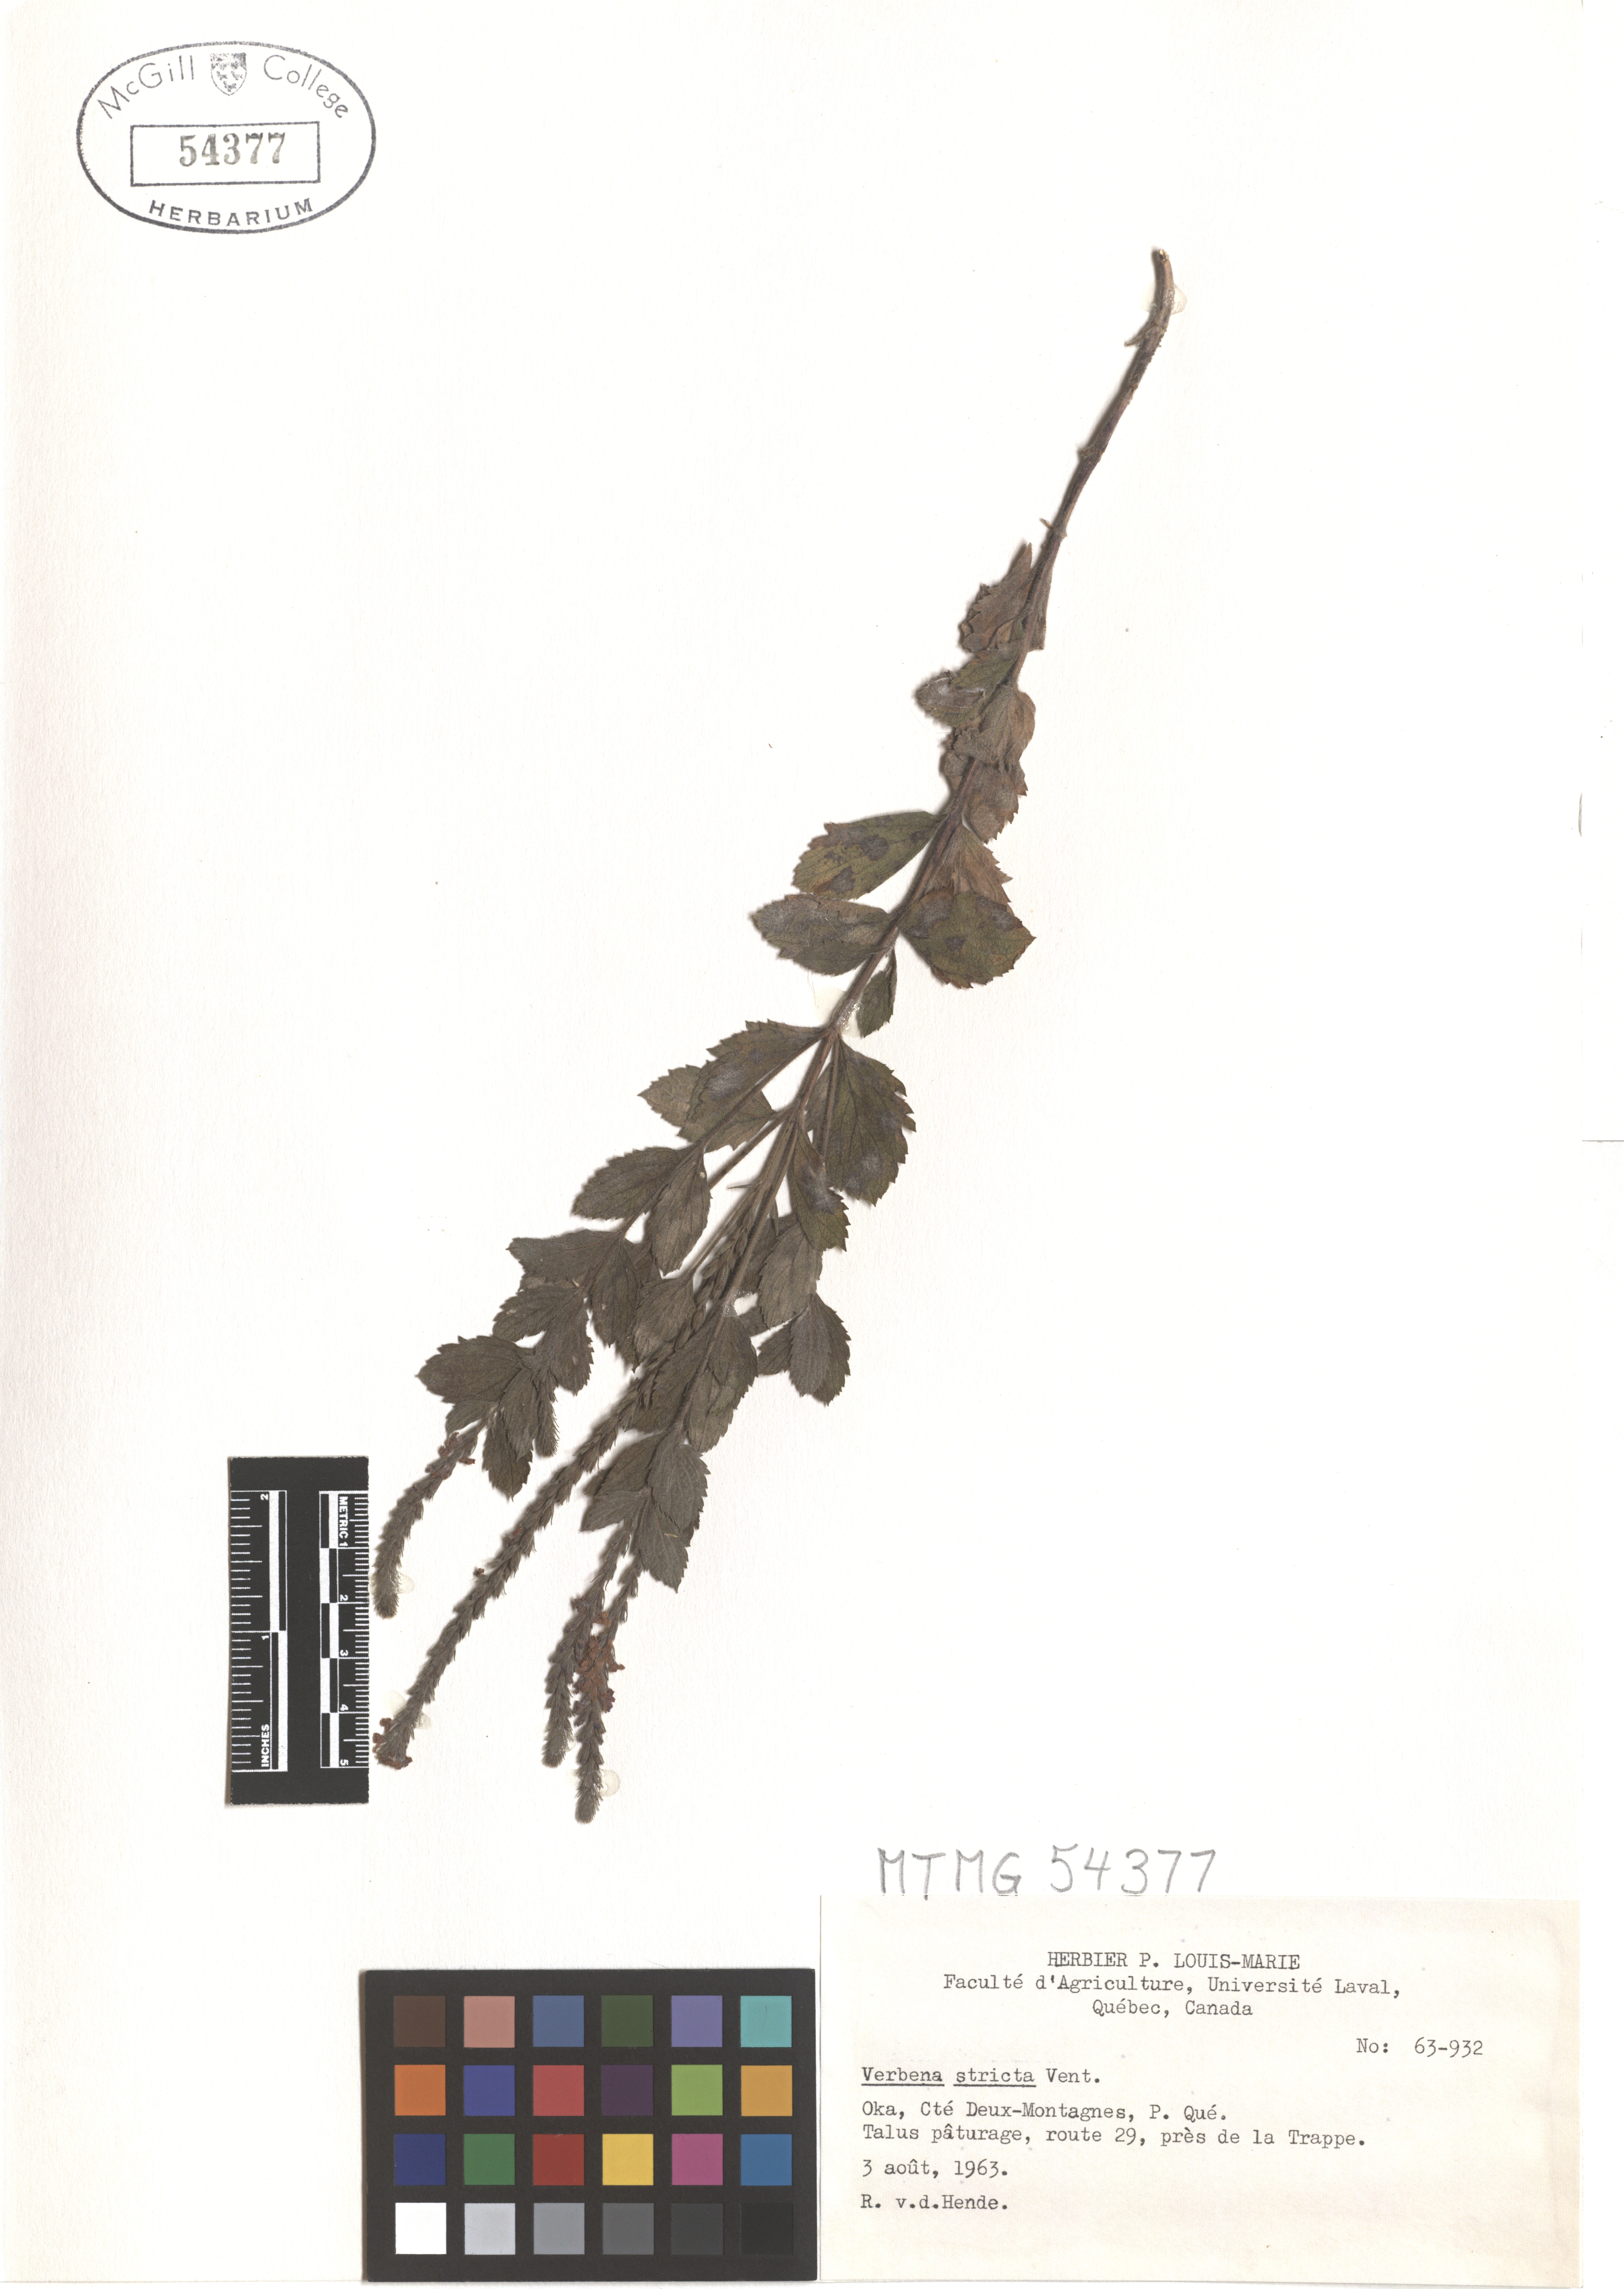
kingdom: Plantae
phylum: Tracheophyta
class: Magnoliopsida
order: Lamiales
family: Verbenaceae
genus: Verbena
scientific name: Verbena stricta
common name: Hoary vervain
